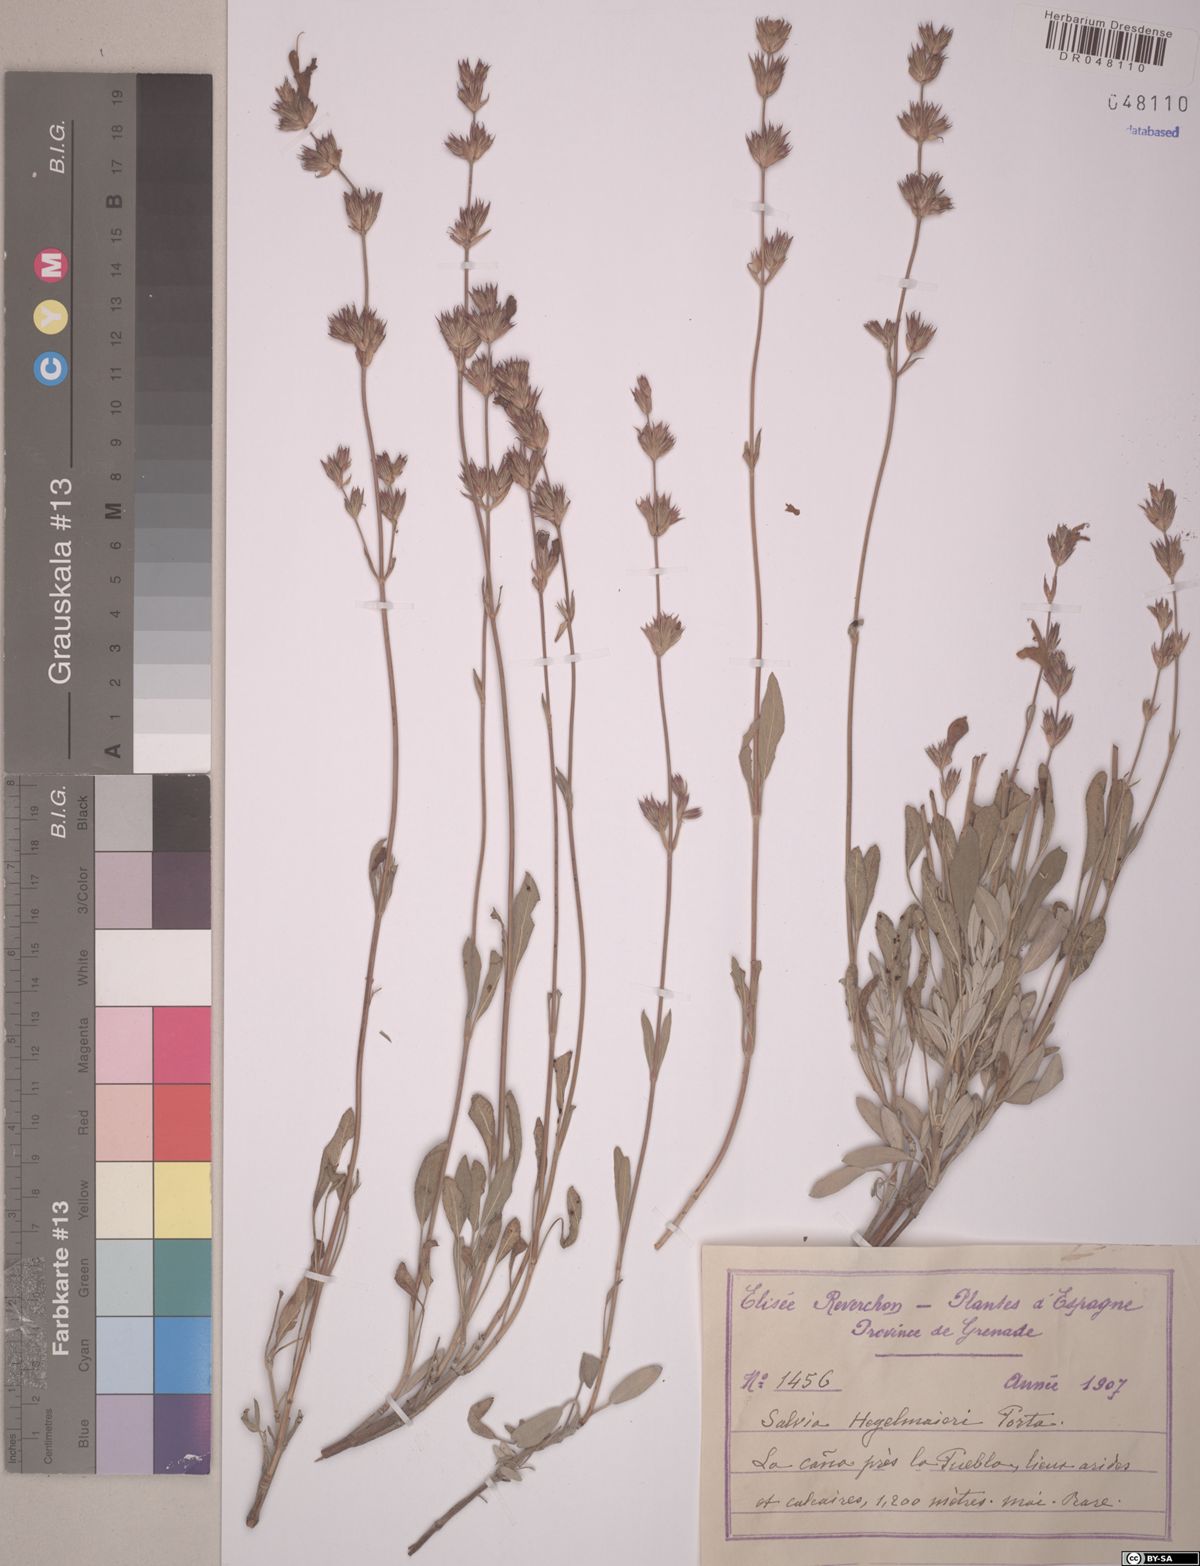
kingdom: Plantae
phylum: Tracheophyta
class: Magnoliopsida
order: Lamiales
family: Lamiaceae
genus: Salvia
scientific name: Salvia hegelmaieri
